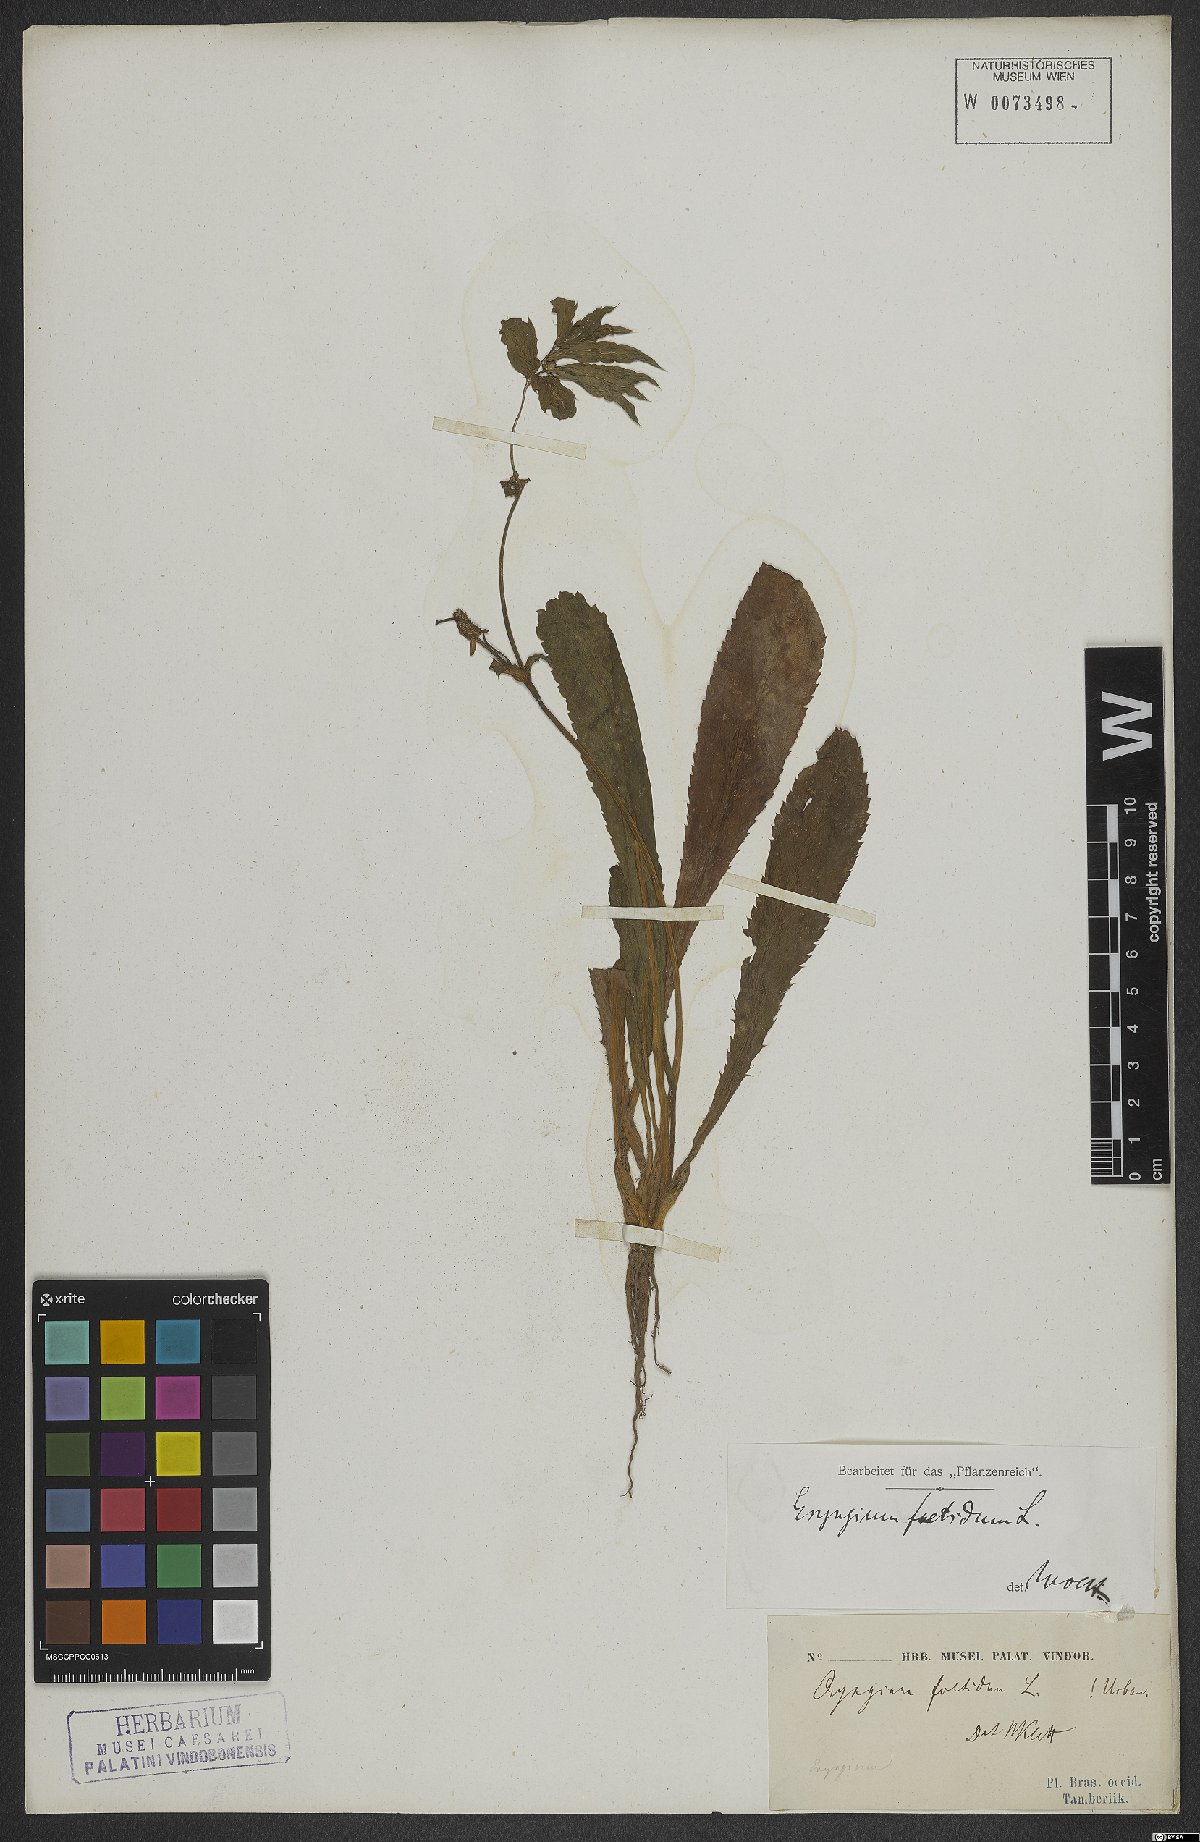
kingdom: Plantae
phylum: Tracheophyta
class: Magnoliopsida
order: Apiales
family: Apiaceae
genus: Eryngium
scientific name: Eryngium foetidum
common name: Fitweed
